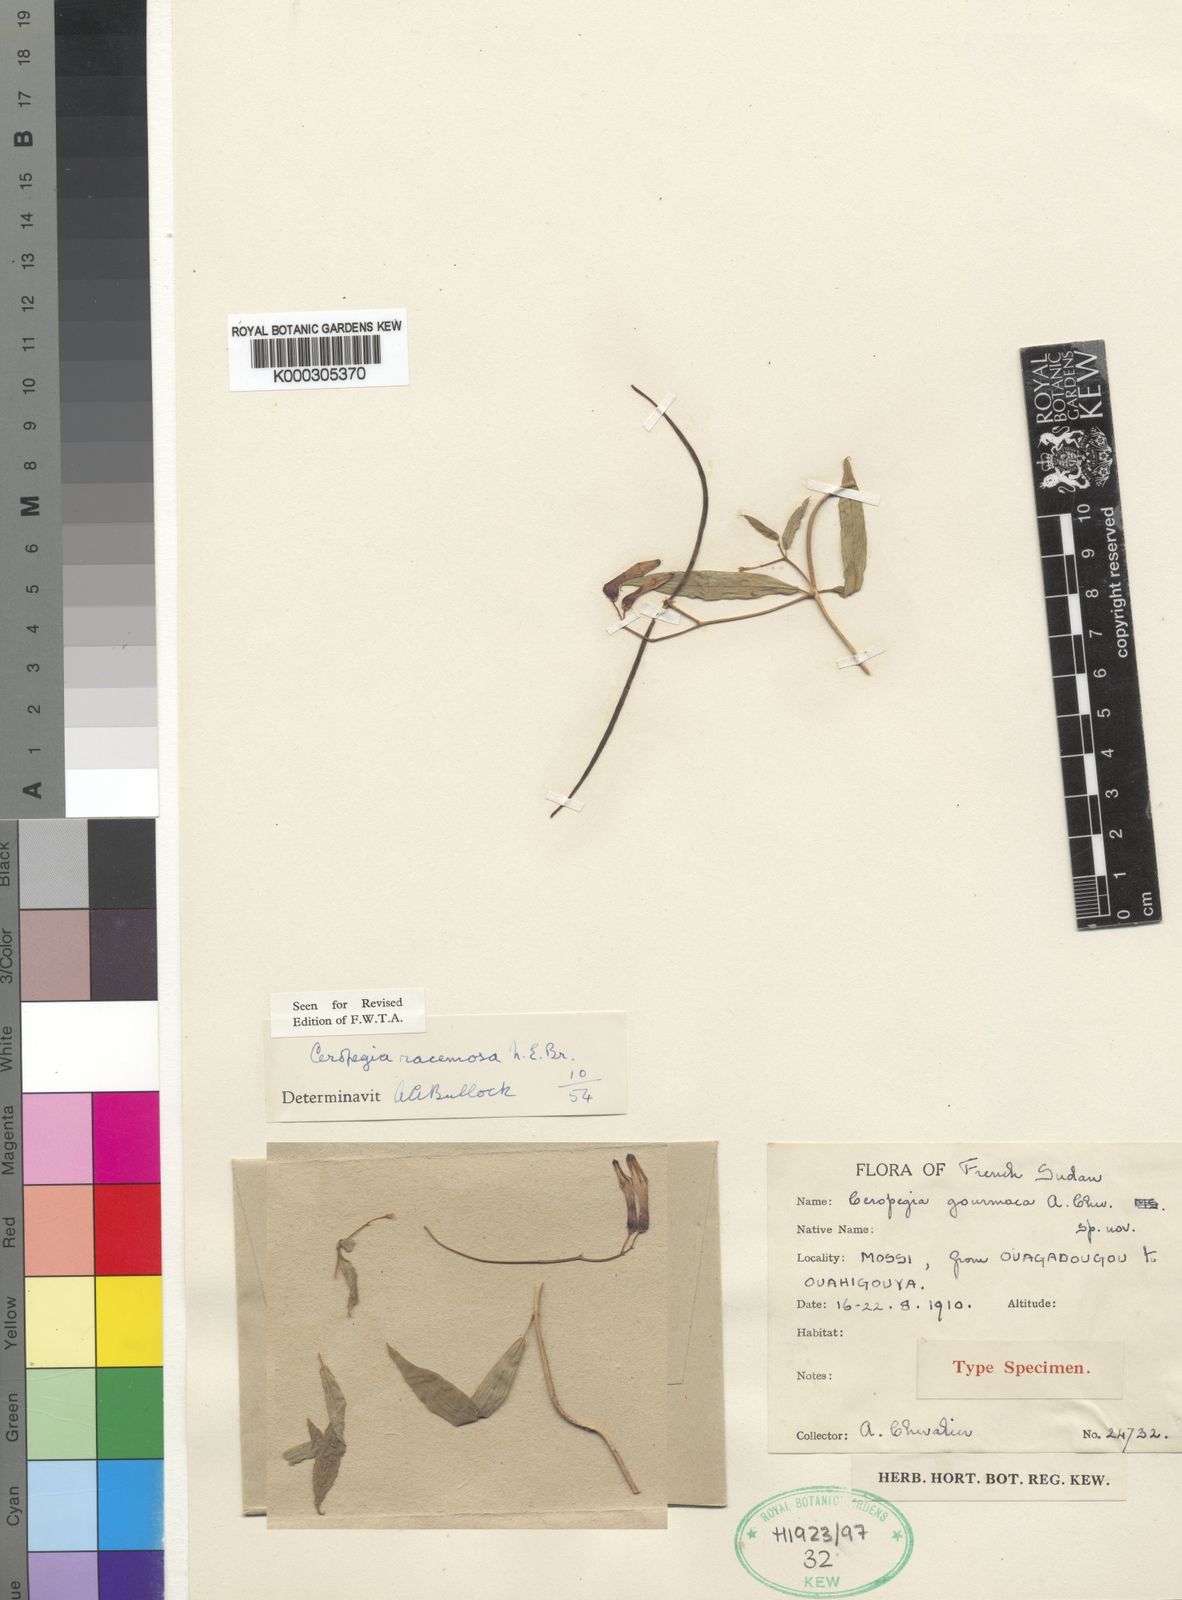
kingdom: Plantae
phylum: Tracheophyta
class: Magnoliopsida
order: Gentianales
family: Apocynaceae
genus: Ceropegia
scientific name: Ceropegia racemosa
